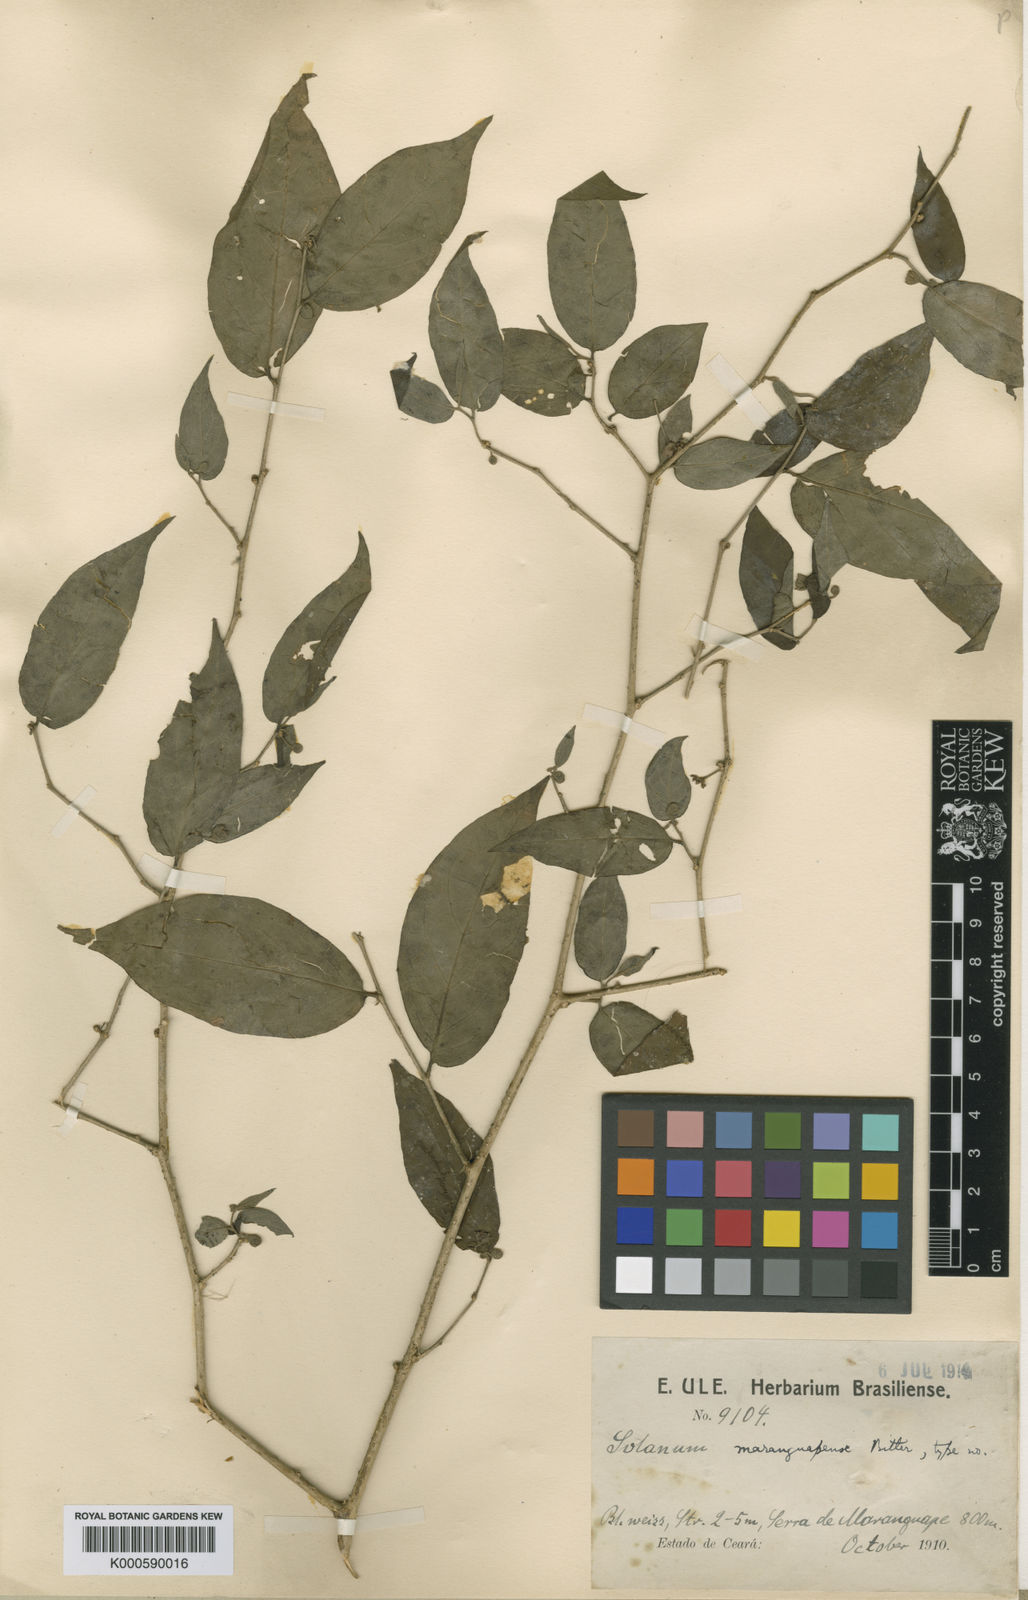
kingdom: Plantae
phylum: Tracheophyta
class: Magnoliopsida
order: Solanales
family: Solanaceae
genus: Solanum
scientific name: Solanum maranguapense
